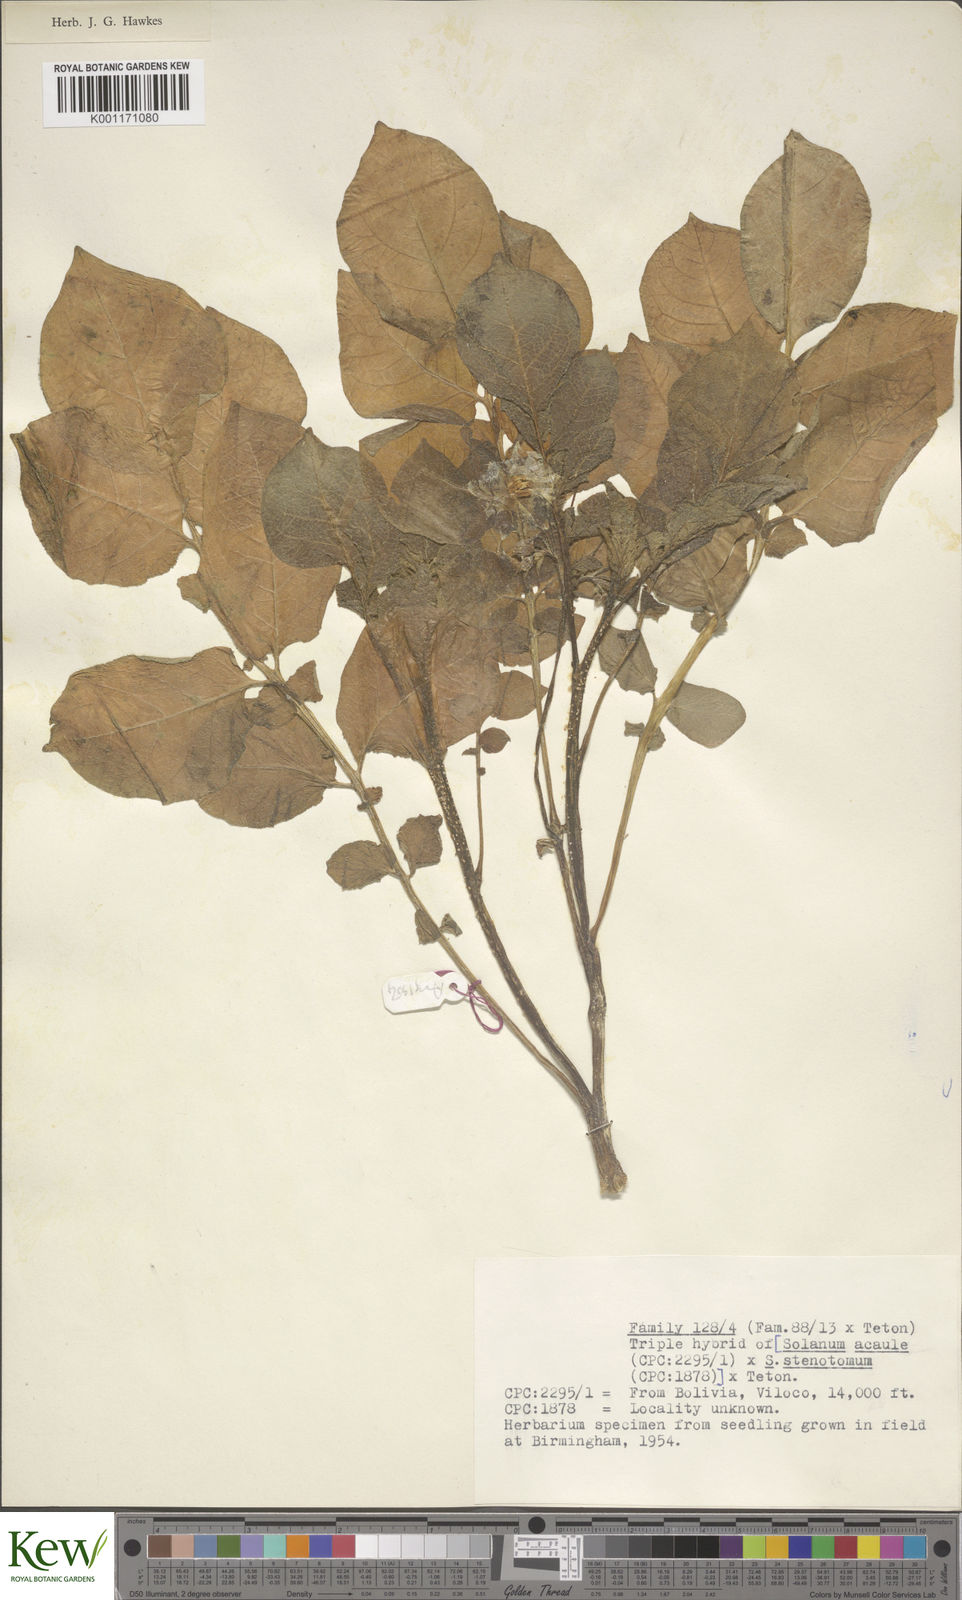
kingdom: Plantae
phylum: Tracheophyta
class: Magnoliopsida
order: Solanales
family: Solanaceae
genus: Solanum
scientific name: Solanum tuberosum
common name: Potato
